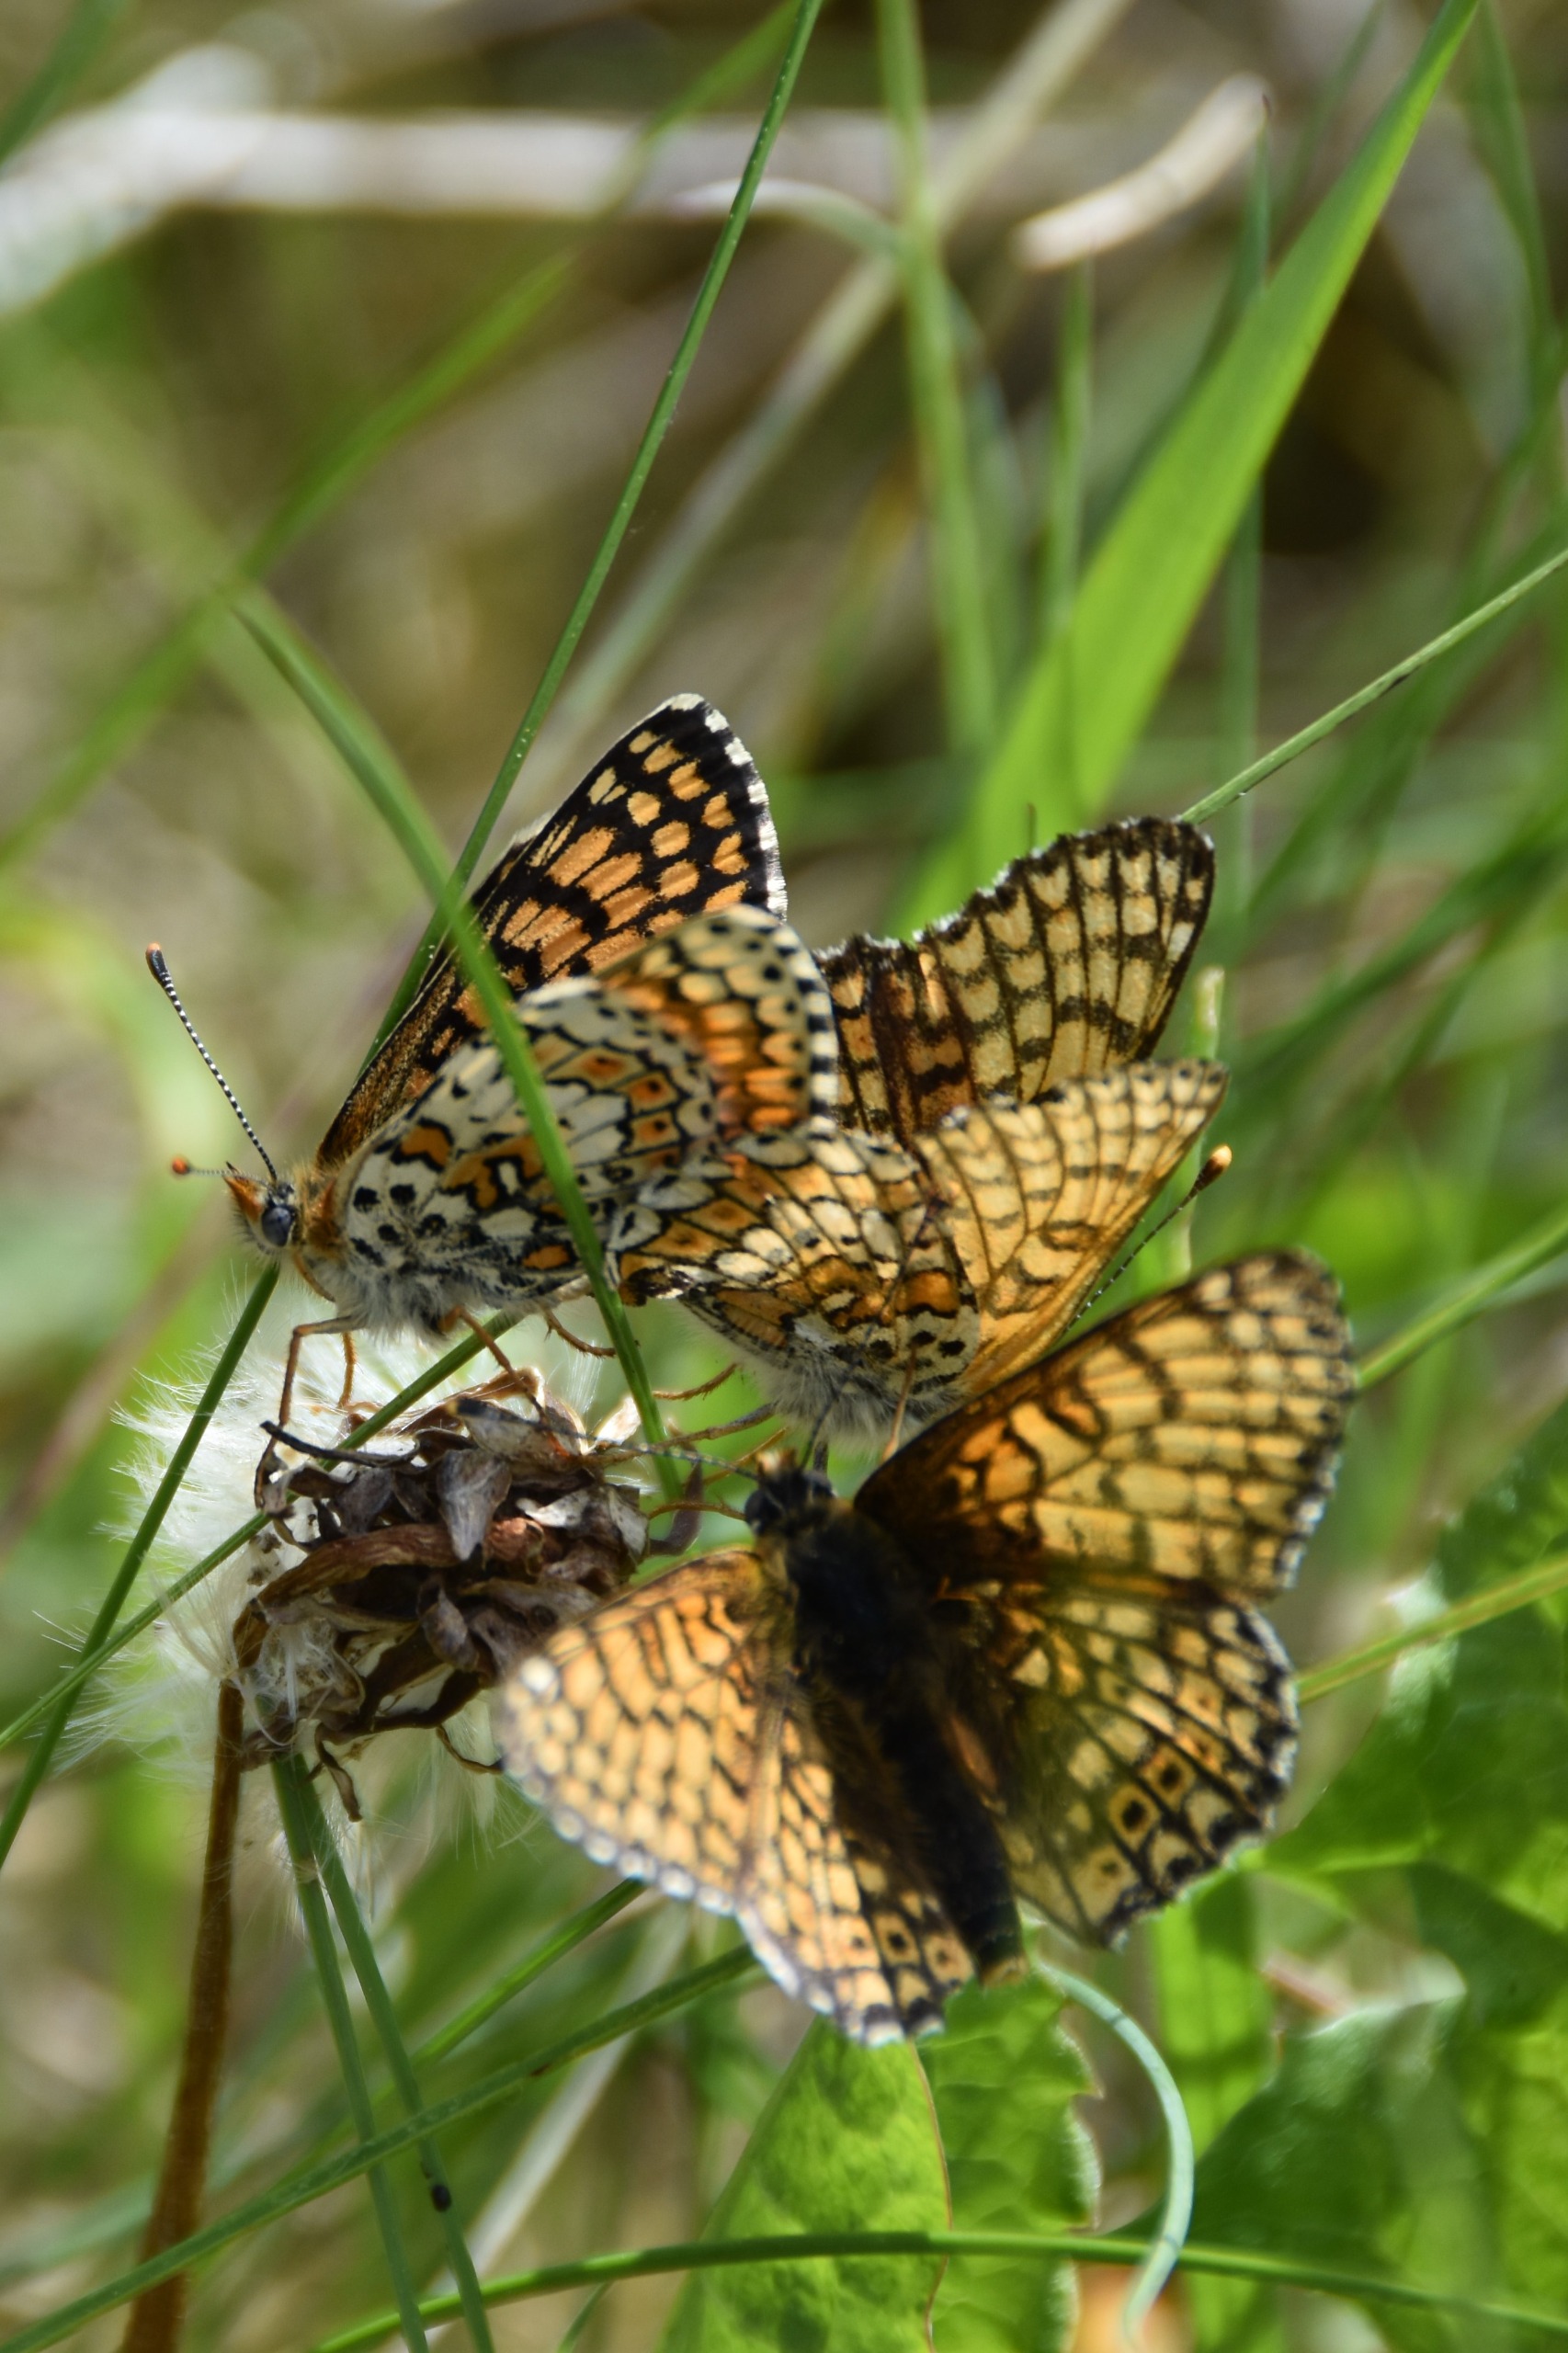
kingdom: Animalia
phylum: Arthropoda
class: Insecta
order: Lepidoptera
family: Nymphalidae
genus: Melitaea
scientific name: Melitaea cinxia
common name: Okkergul pletvinge
